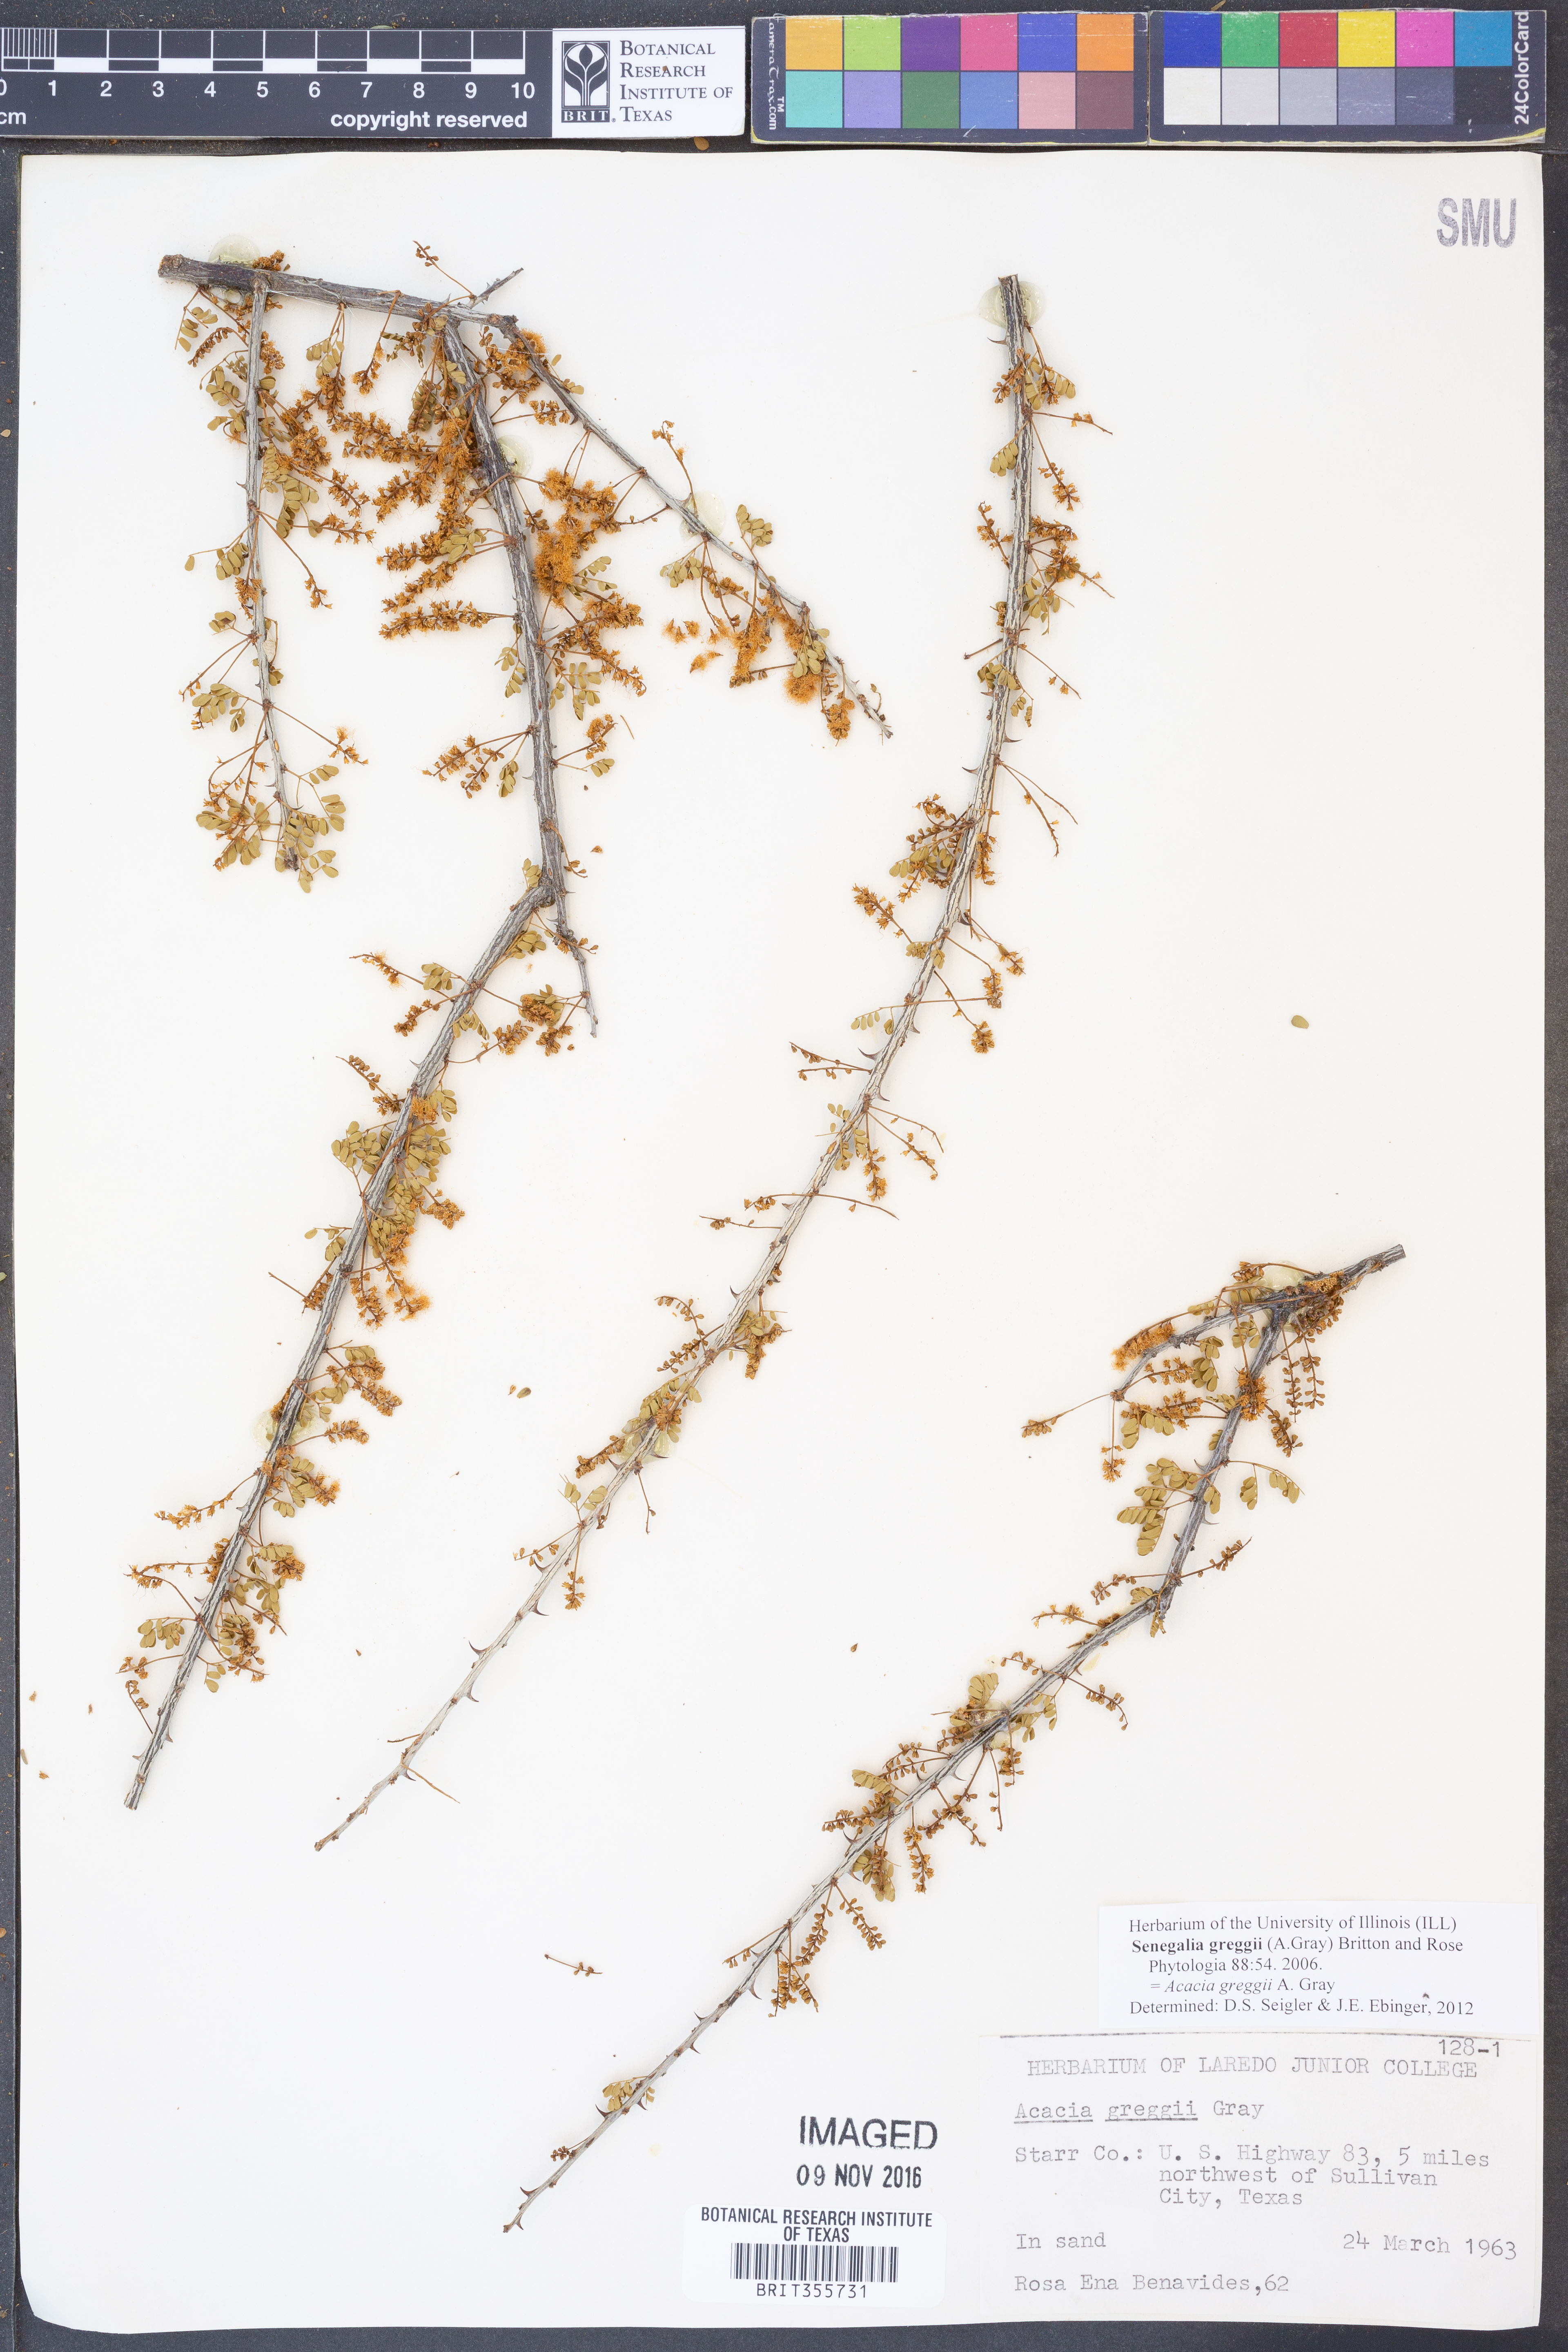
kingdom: Plantae
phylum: Tracheophyta
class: Magnoliopsida
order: Fabales
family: Fabaceae
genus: Senegalia
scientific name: Senegalia greggii
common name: Texas-mimosa
